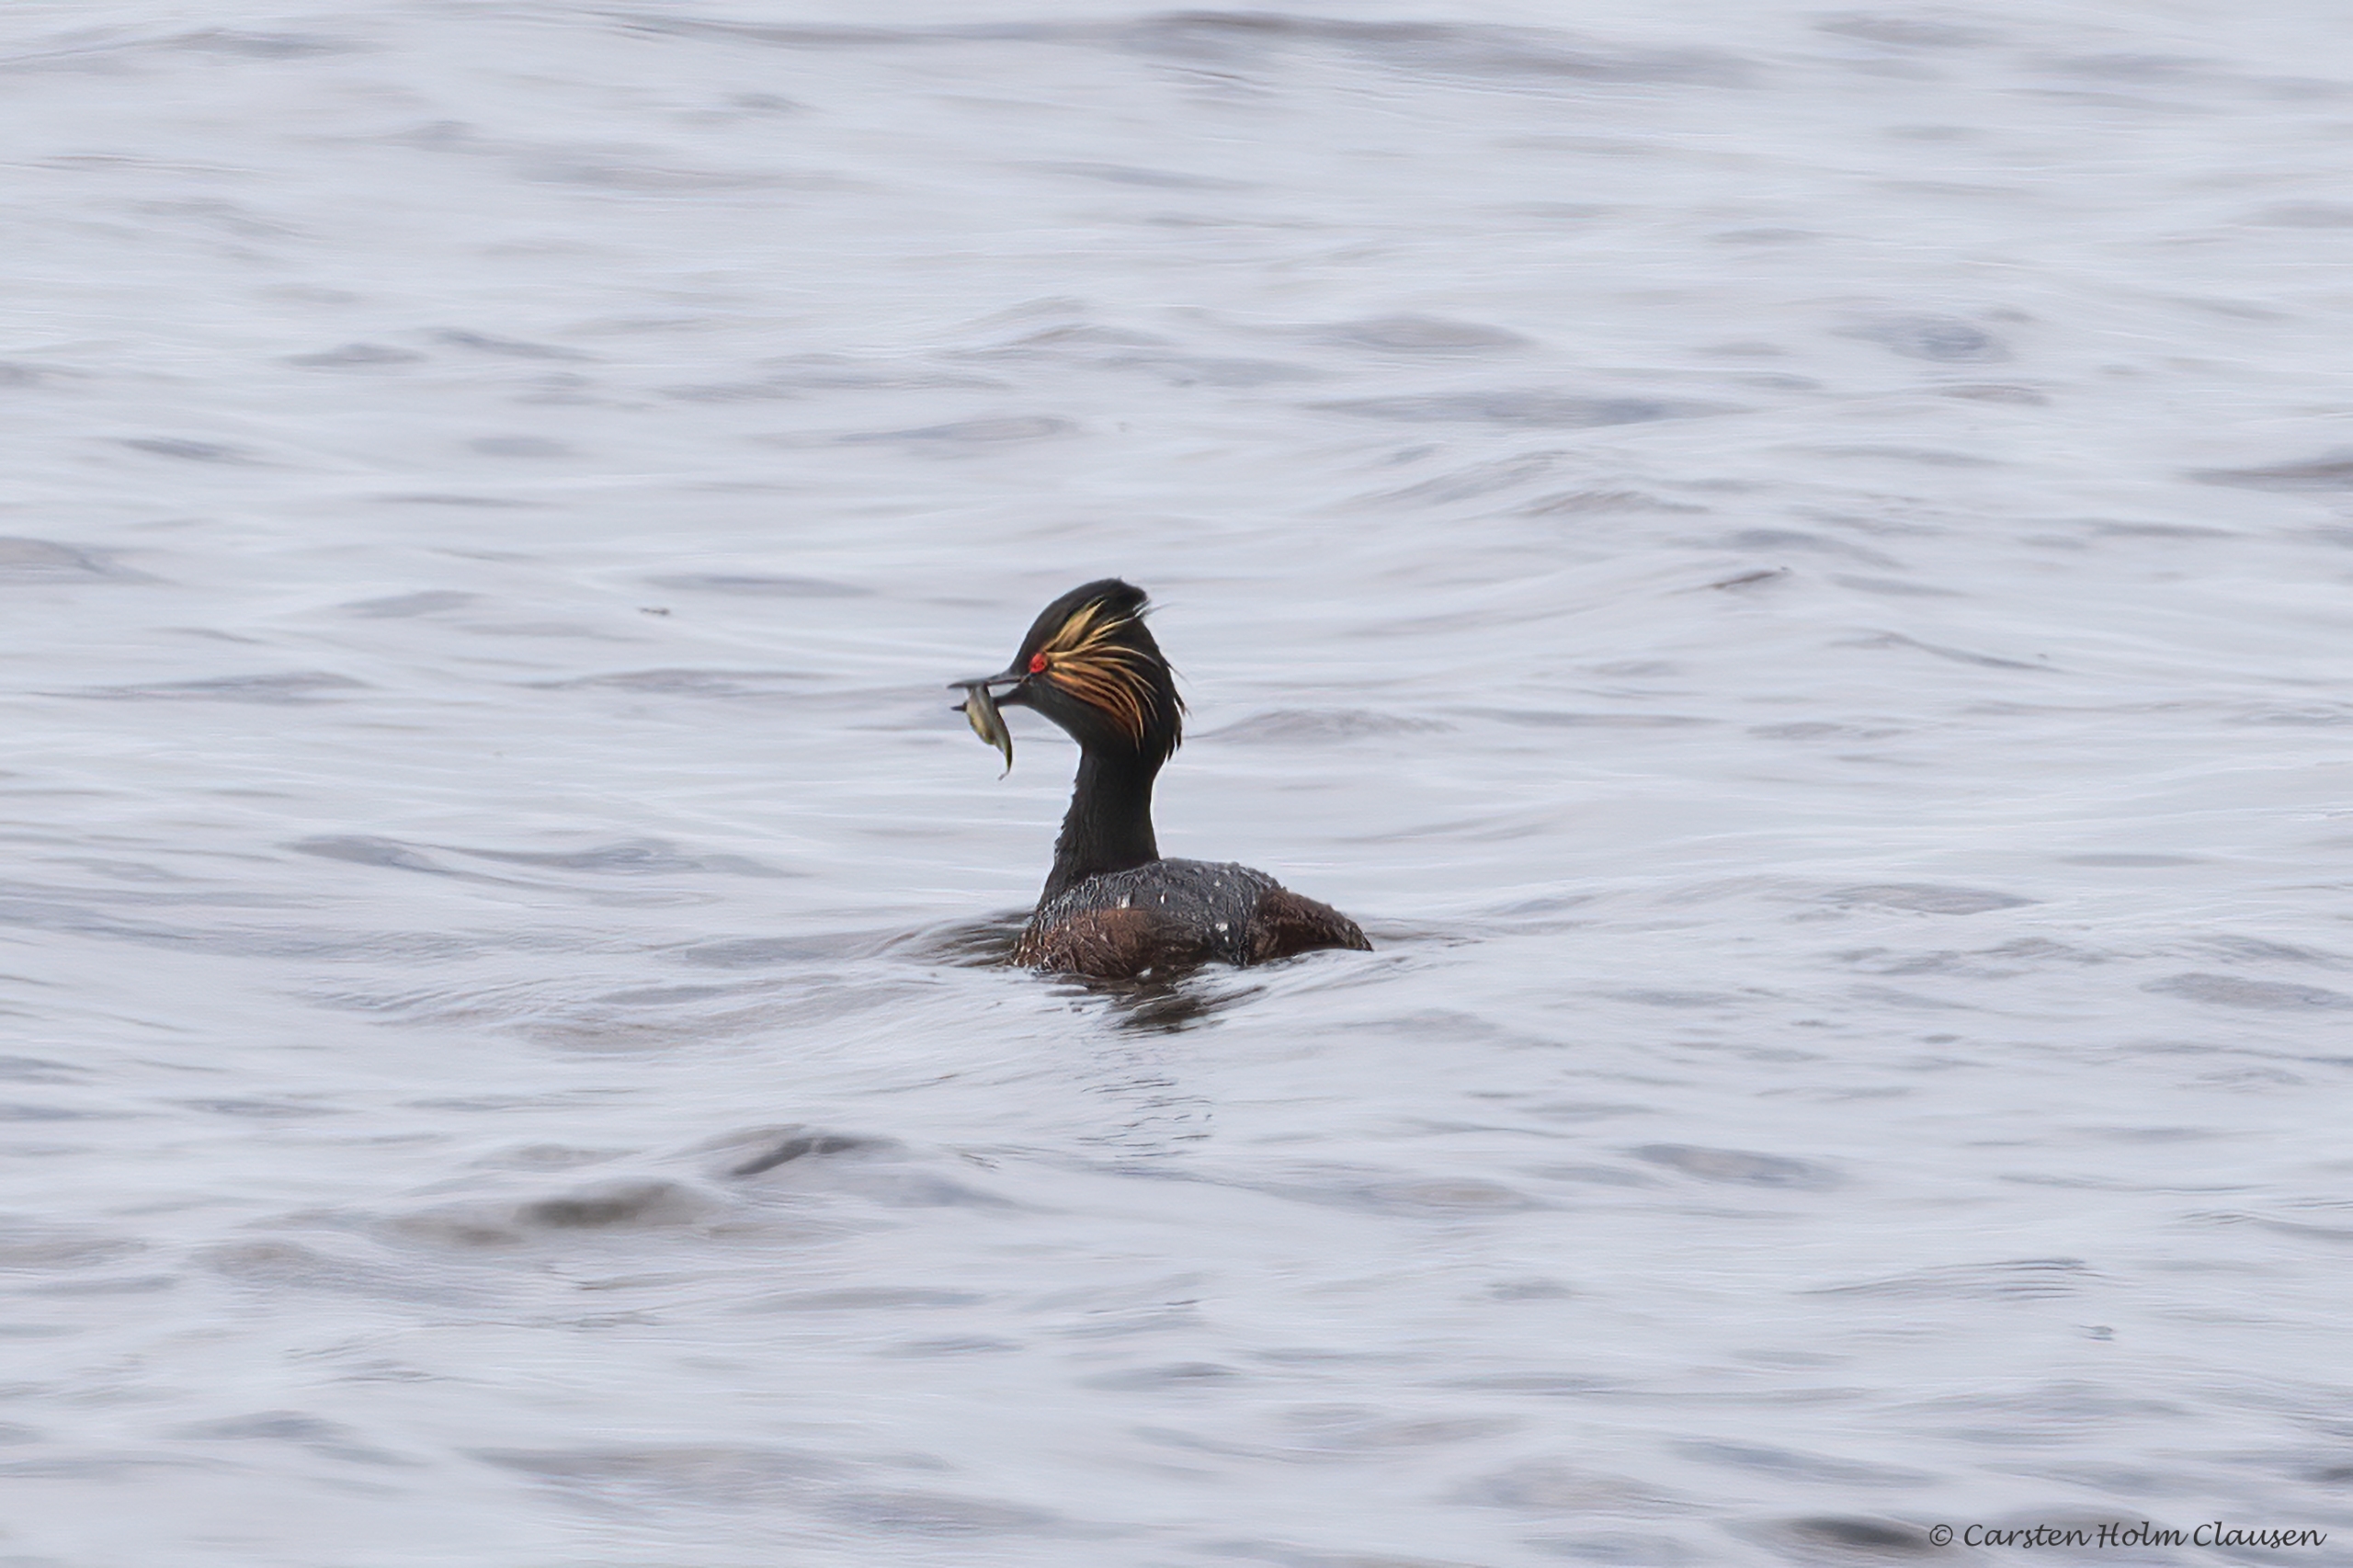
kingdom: Animalia
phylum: Chordata
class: Aves
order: Podicipediformes
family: Podicipedidae
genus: Podiceps
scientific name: Podiceps nigricollis
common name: Sorthalset lappedykker
